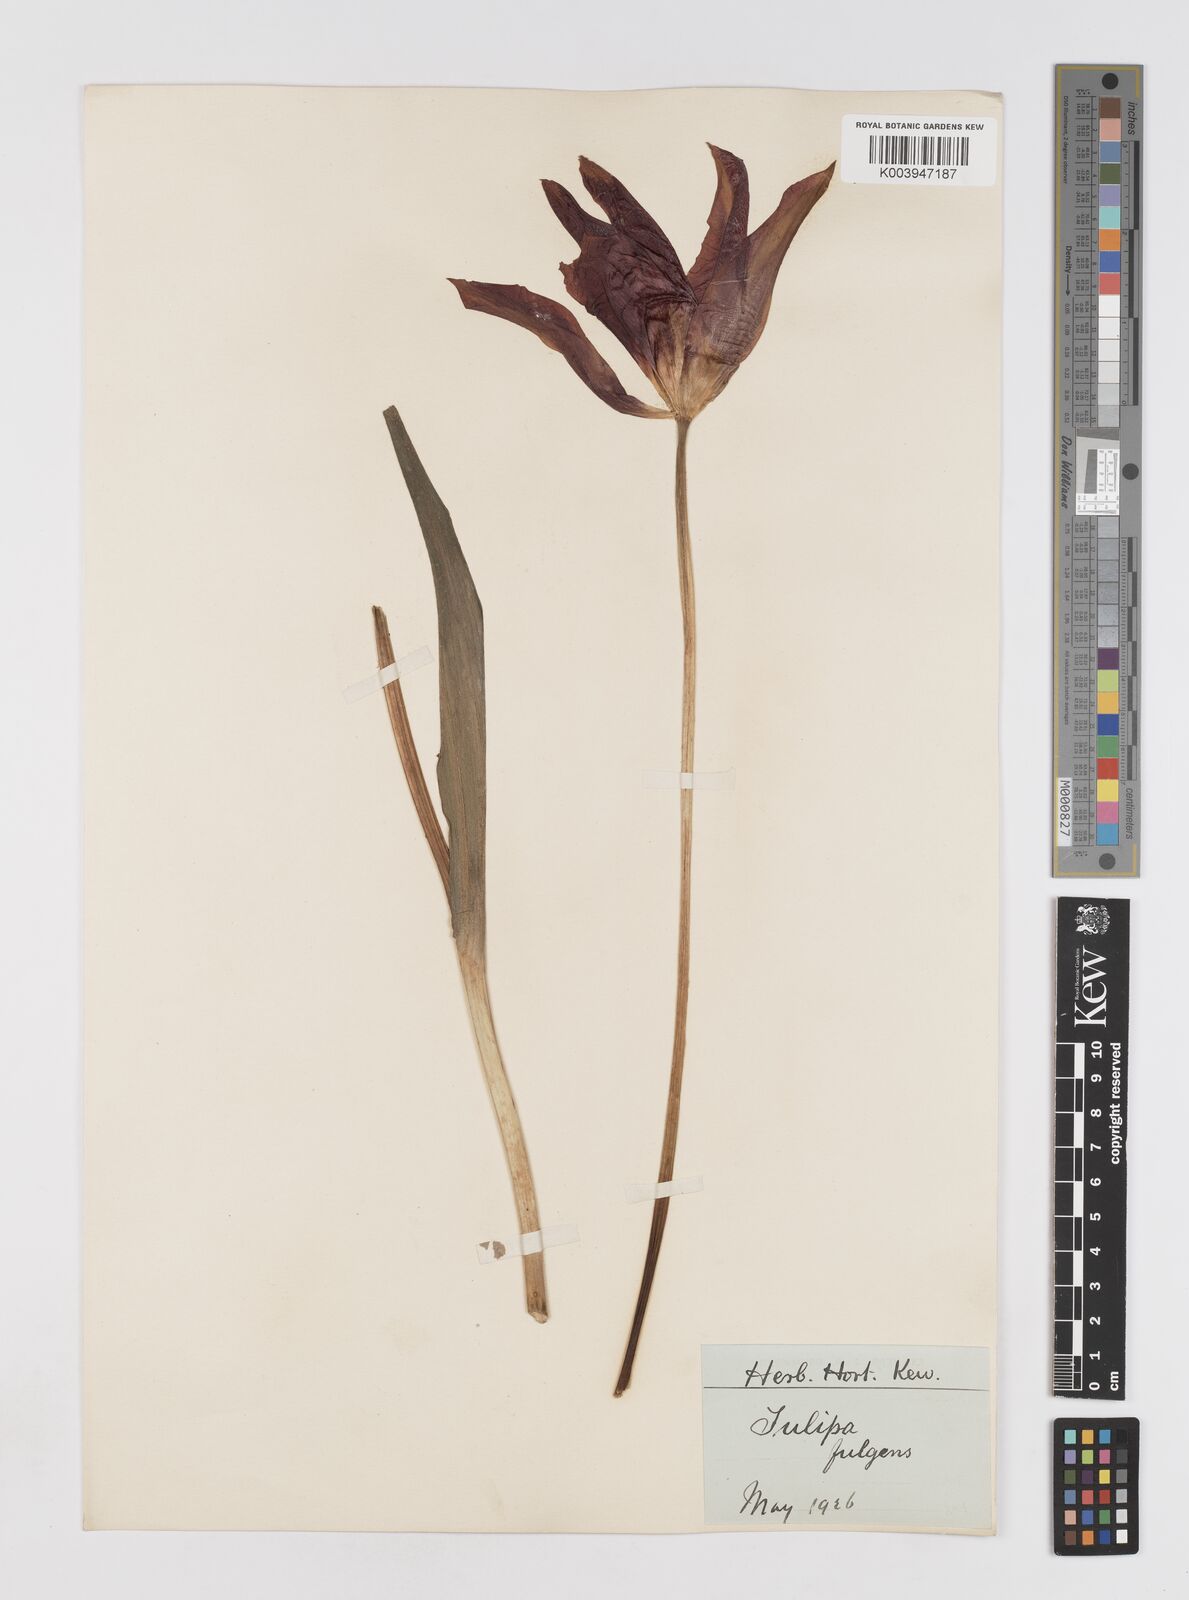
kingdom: Plantae
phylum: Tracheophyta
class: Liliopsida
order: Liliales
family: Liliaceae
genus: Tulipa
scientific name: Tulipa gesneriana
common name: Garden tulip
